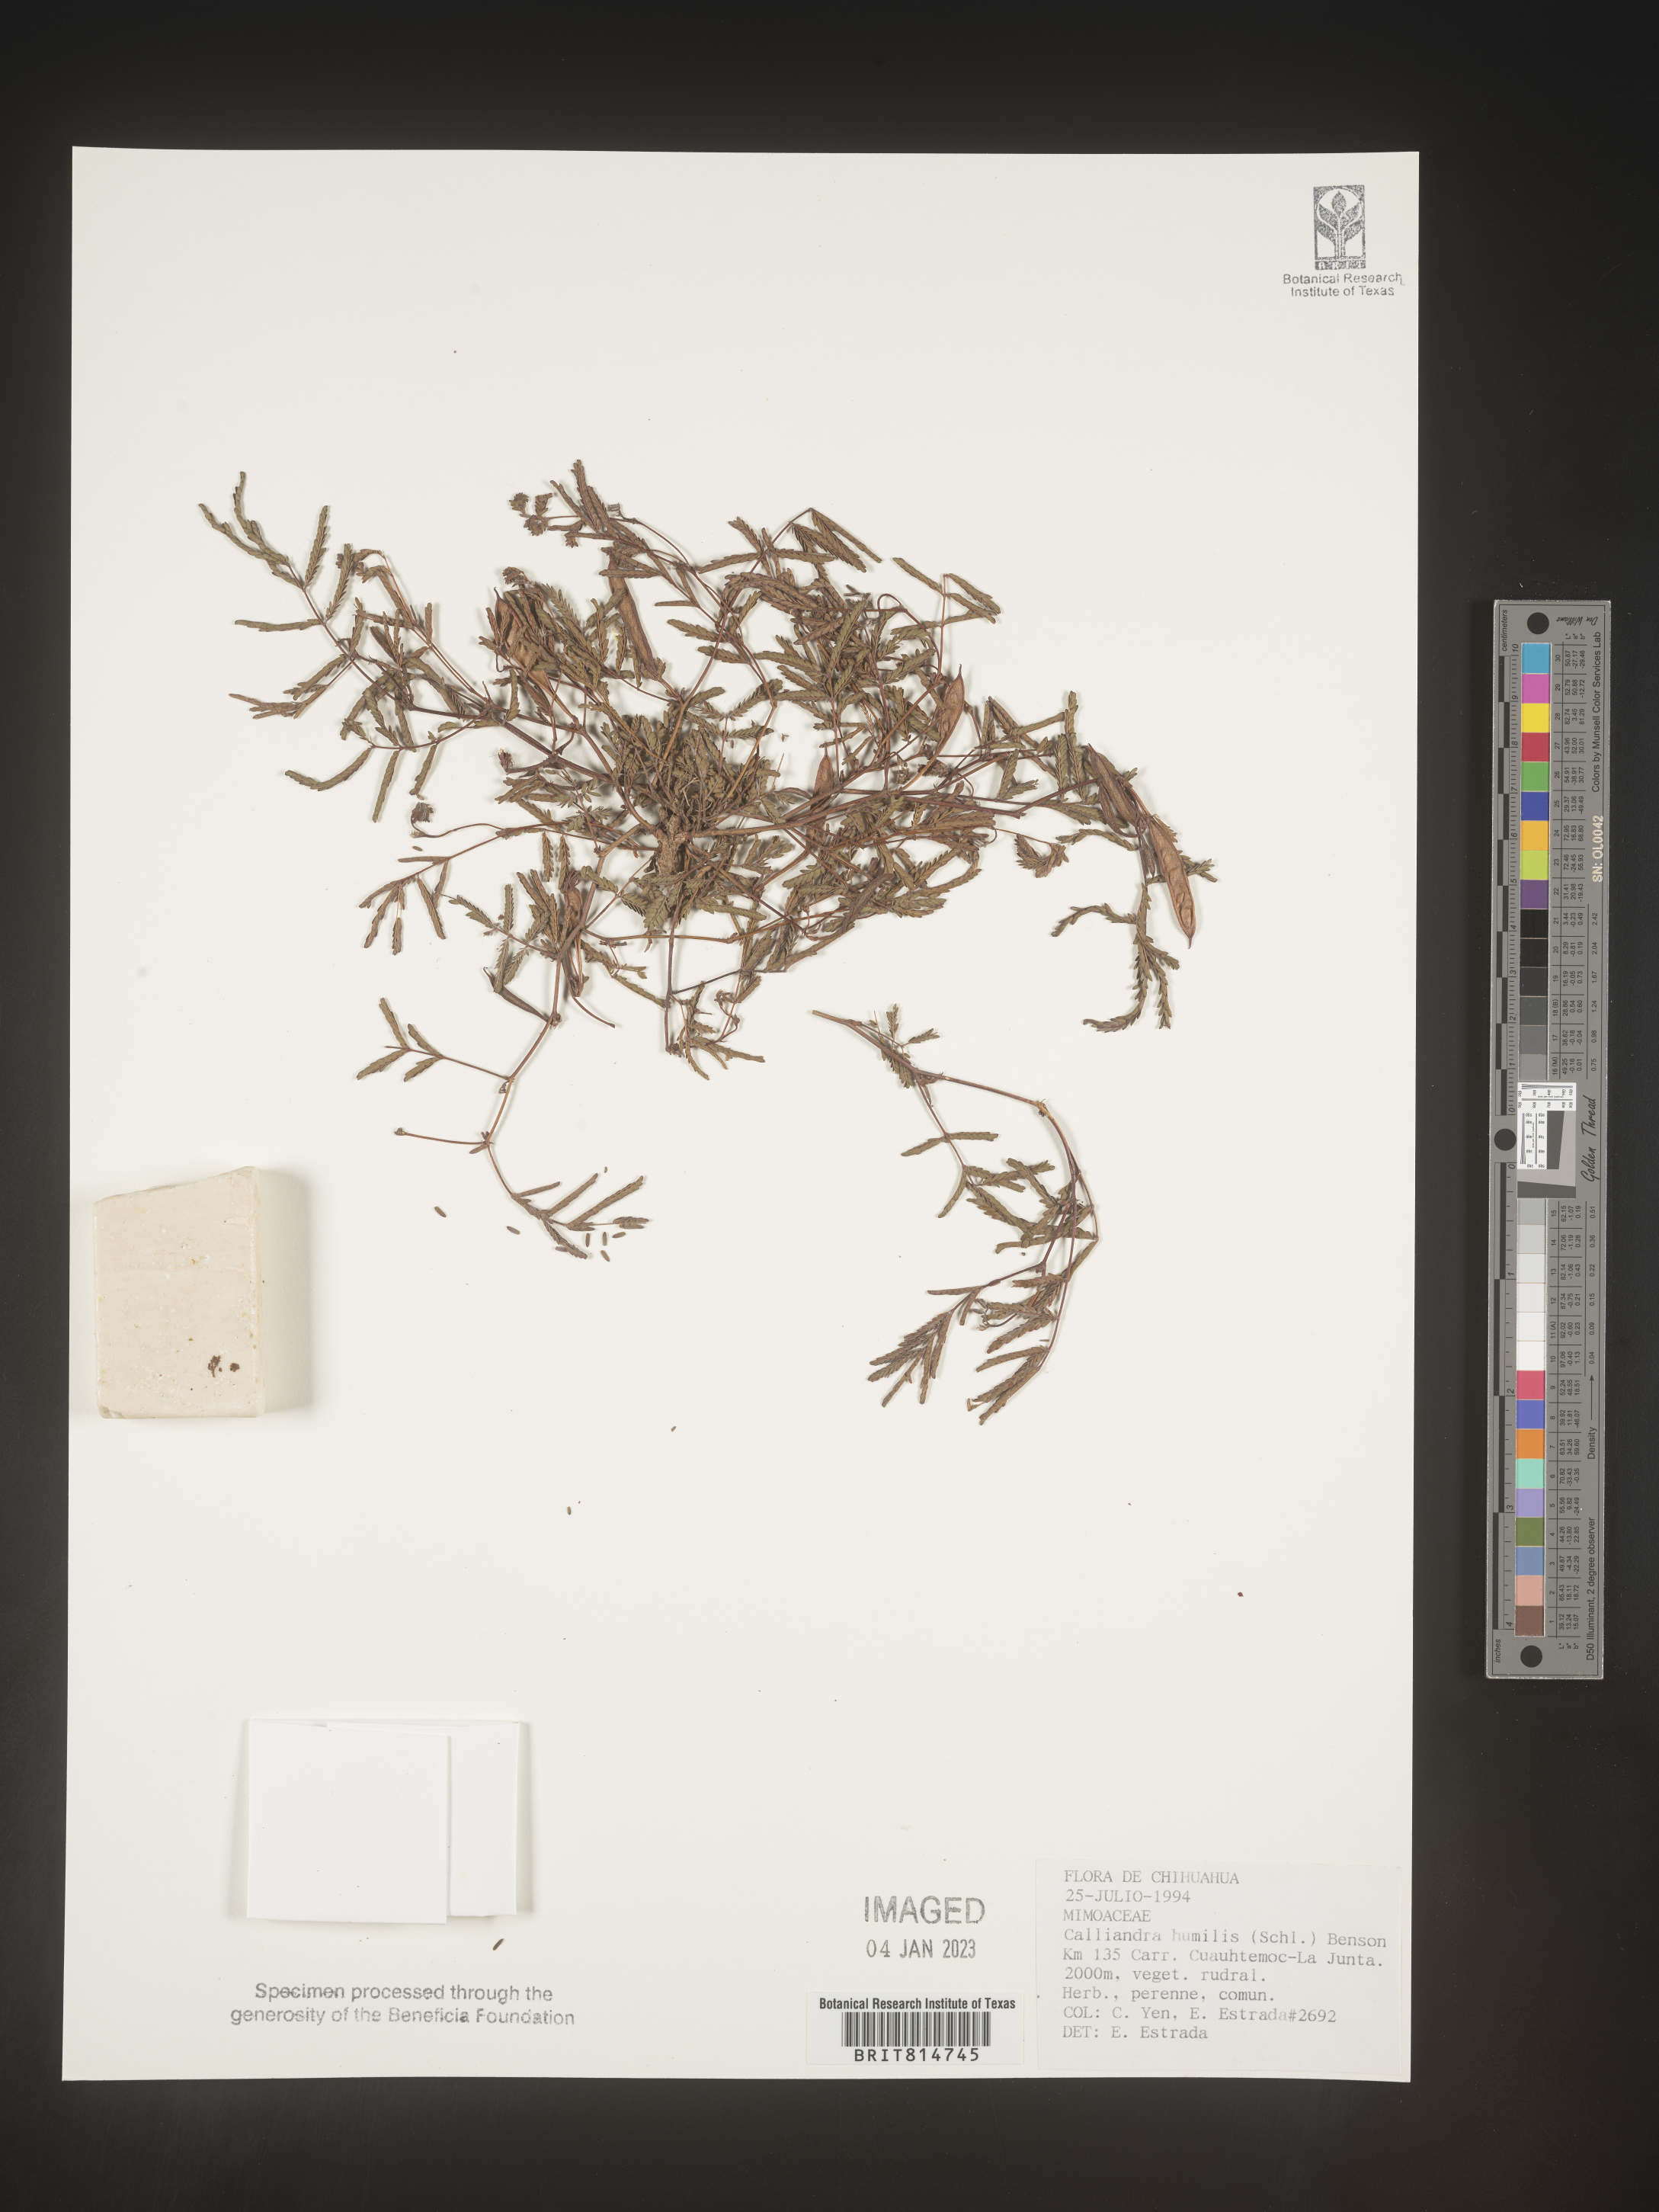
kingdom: Plantae
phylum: Tracheophyta
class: Magnoliopsida
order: Fabales
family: Fabaceae
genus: Calliandra
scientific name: Calliandra
